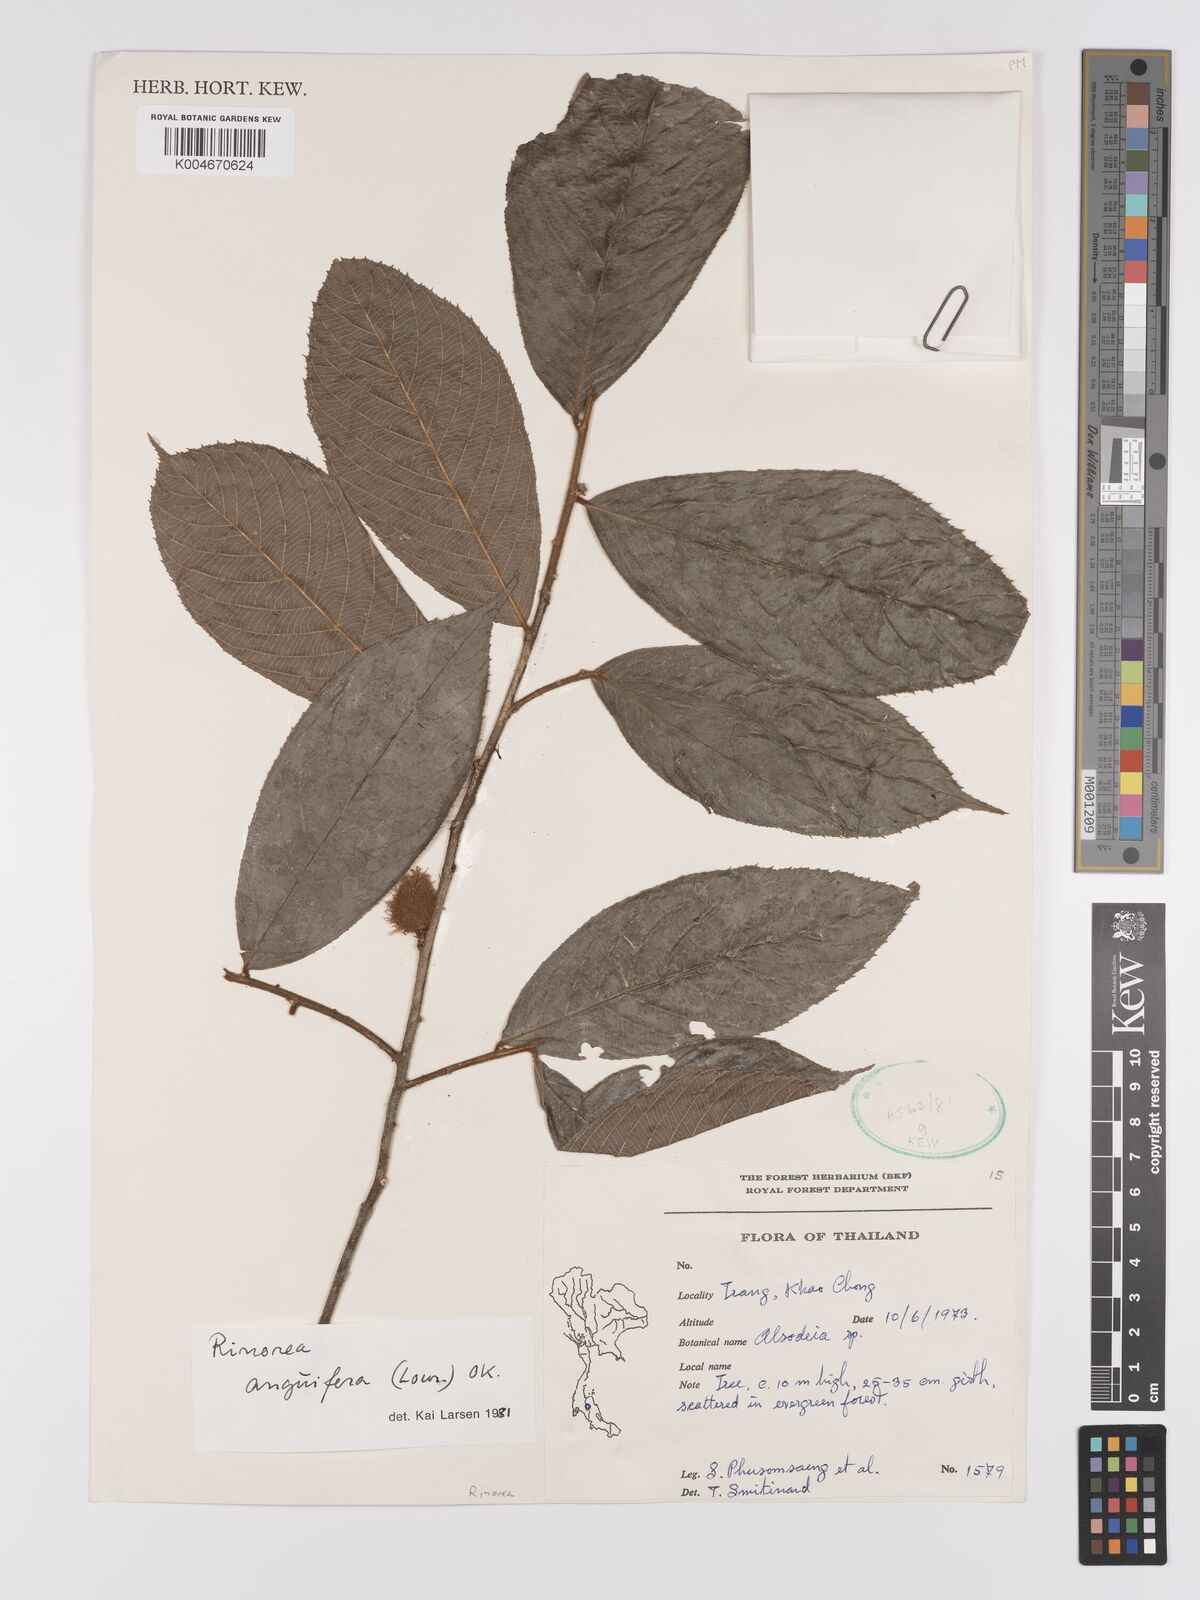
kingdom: Plantae
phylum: Tracheophyta
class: Magnoliopsida
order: Malpighiales
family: Violaceae
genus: Rinorea
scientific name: Rinorea anguifera
